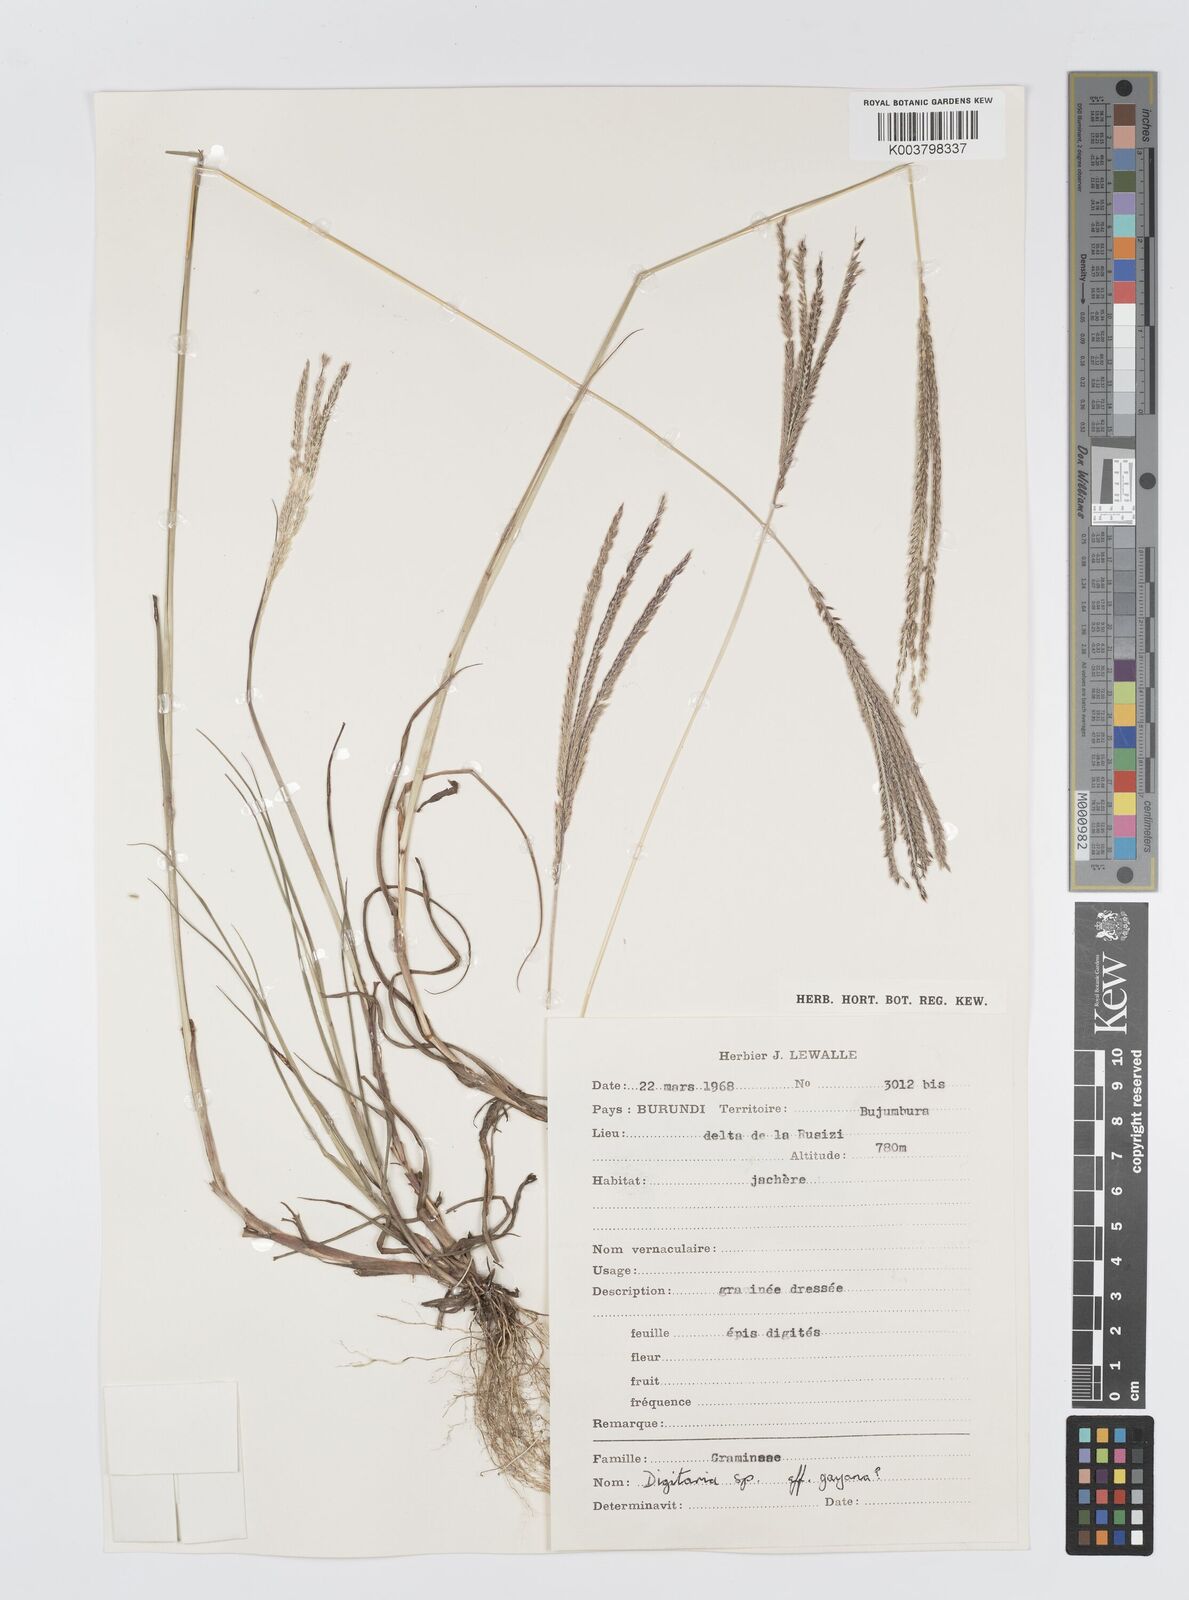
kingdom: Plantae
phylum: Tracheophyta
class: Liliopsida
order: Poales
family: Poaceae
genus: Digitaria
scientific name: Digitaria comifera
